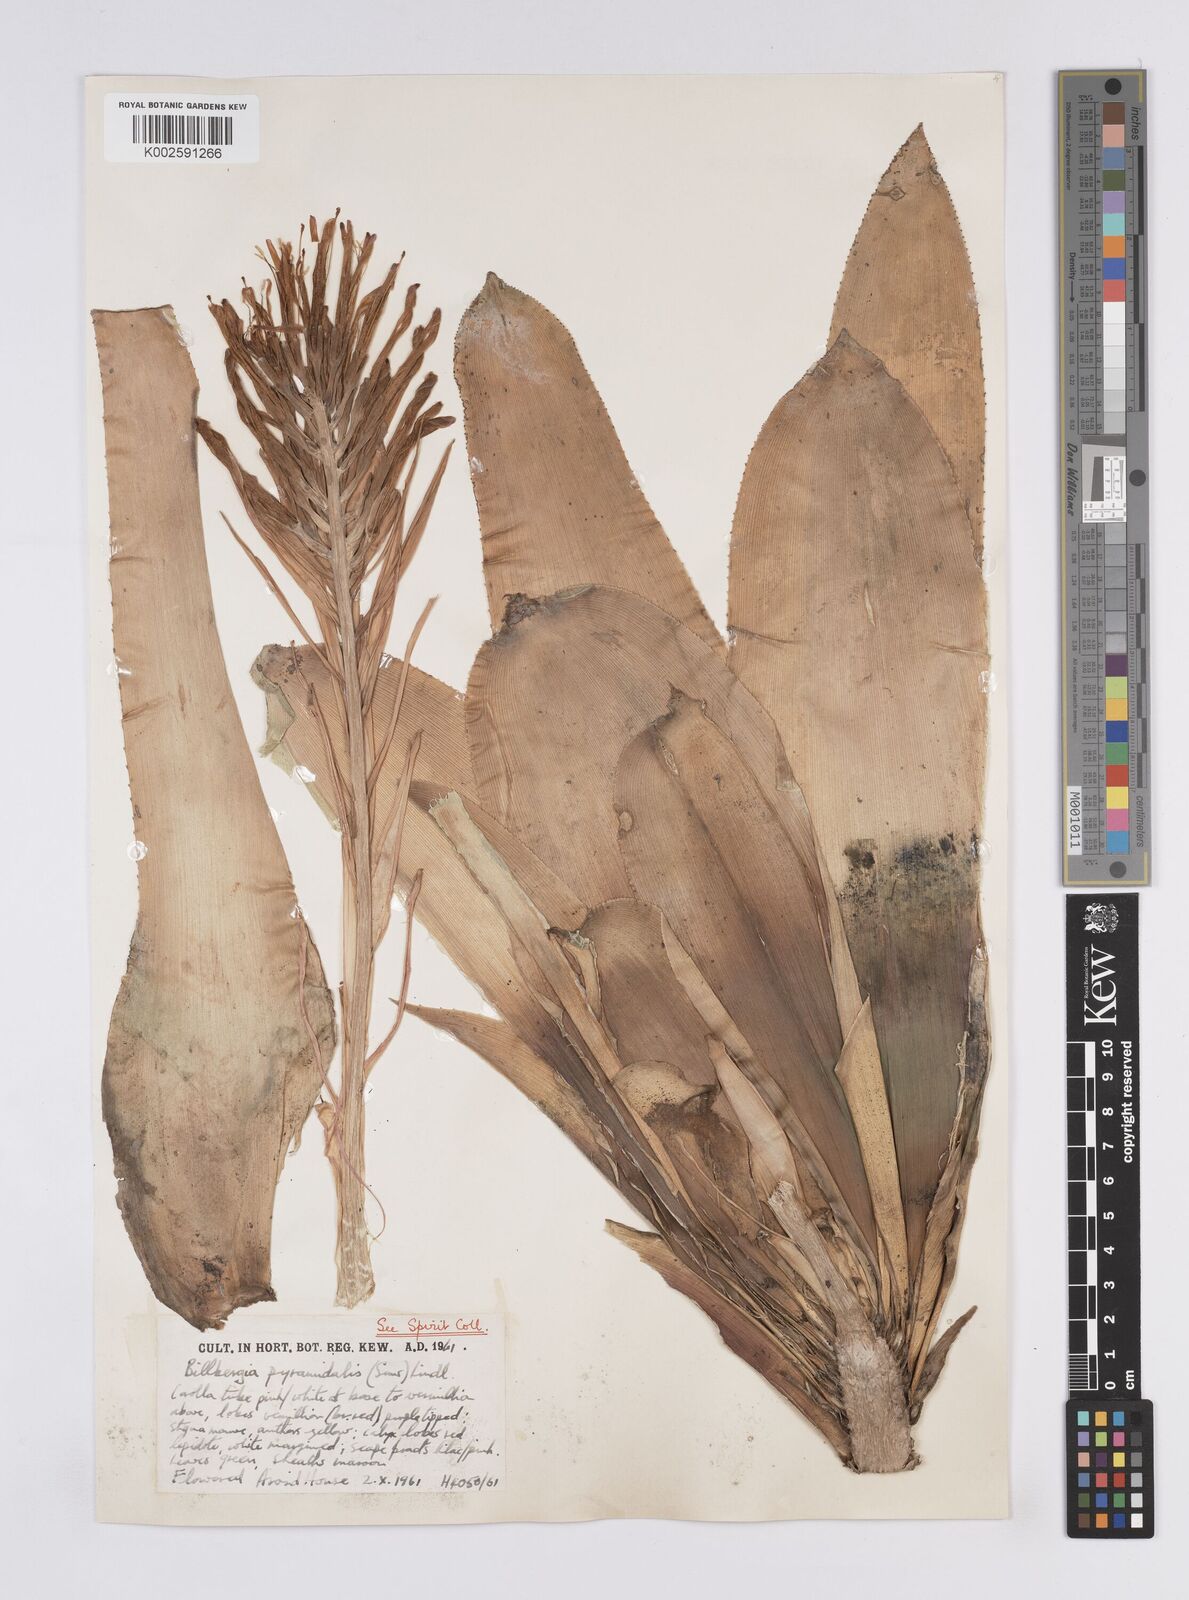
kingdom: Plantae
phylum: Tracheophyta
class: Liliopsida
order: Poales
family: Bromeliaceae
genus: Billbergia
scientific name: Billbergia pyramidalis
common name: Foolproofplant
